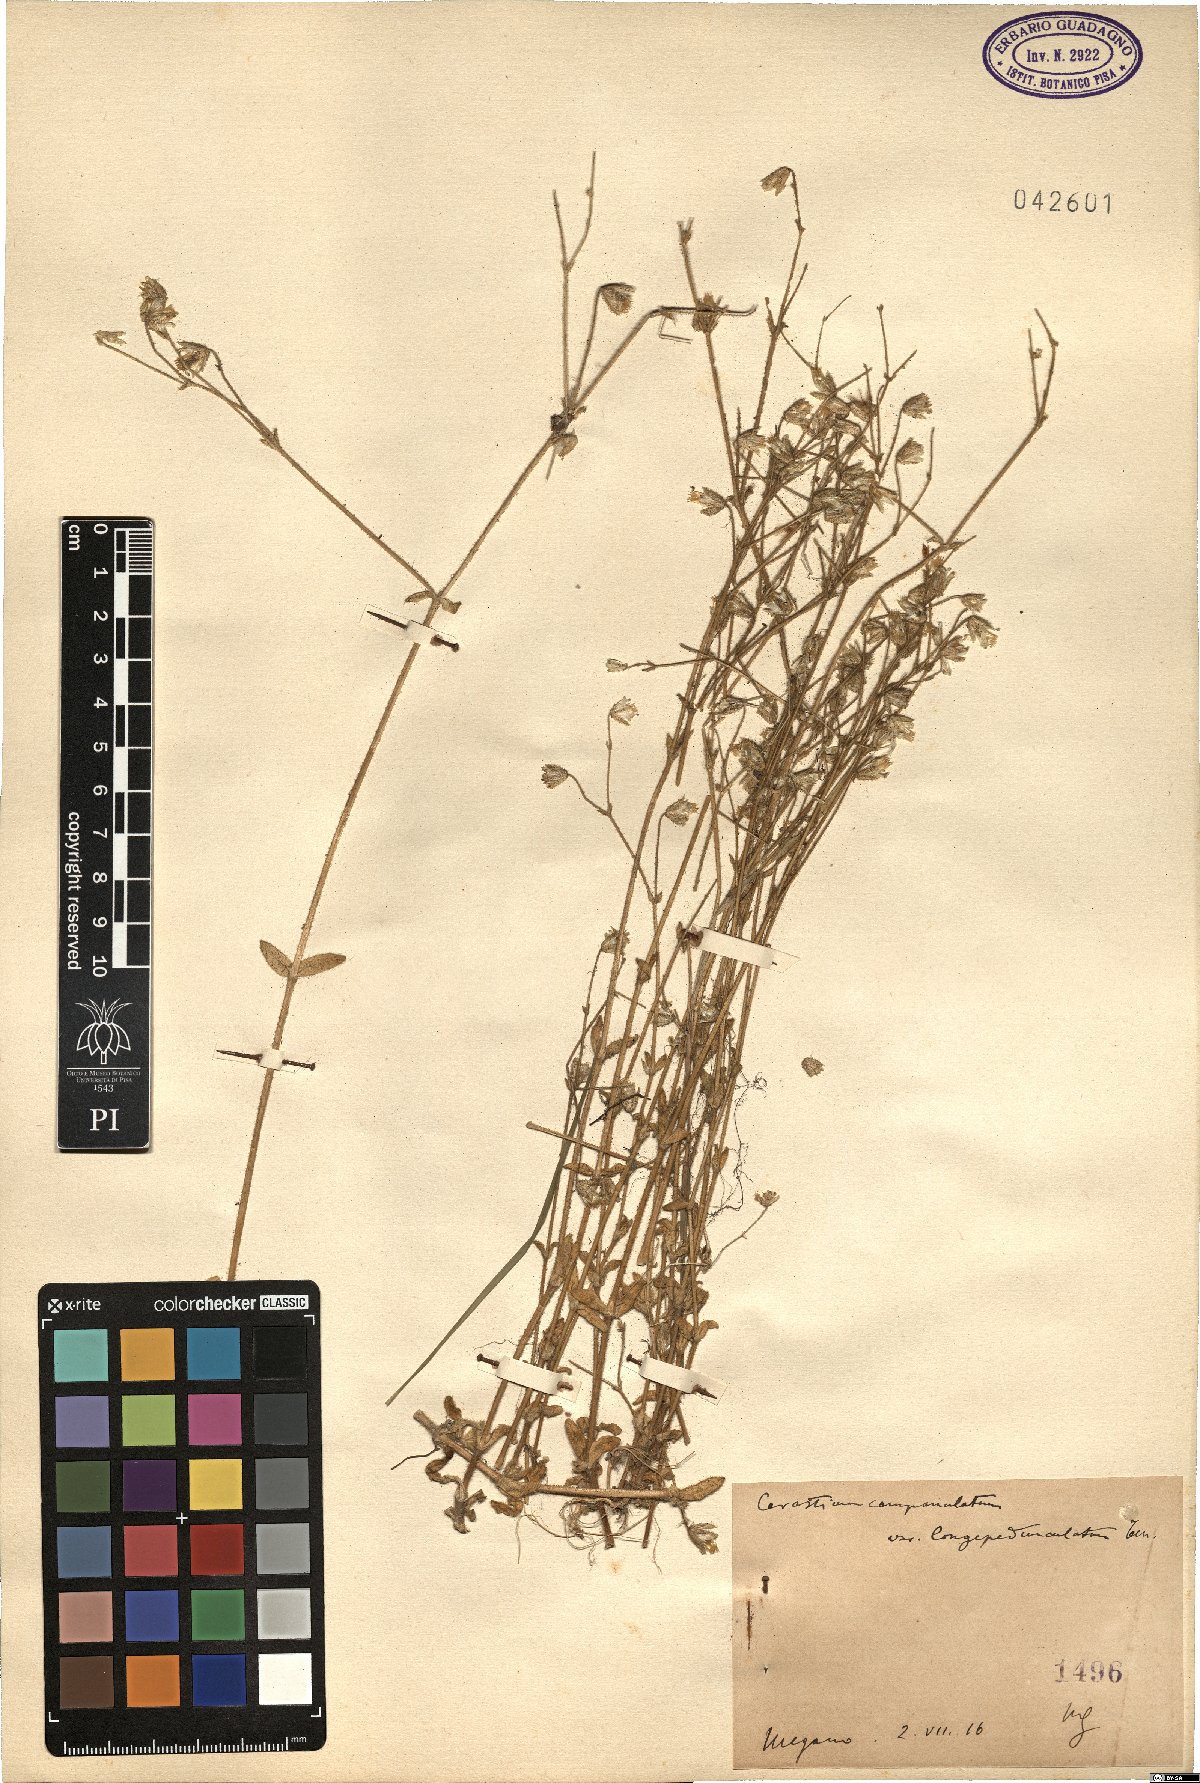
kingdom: Plantae
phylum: Tracheophyta
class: Magnoliopsida
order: Caryophyllales
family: Caryophyllaceae
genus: Cerastium
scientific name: Cerastium ligusticum
